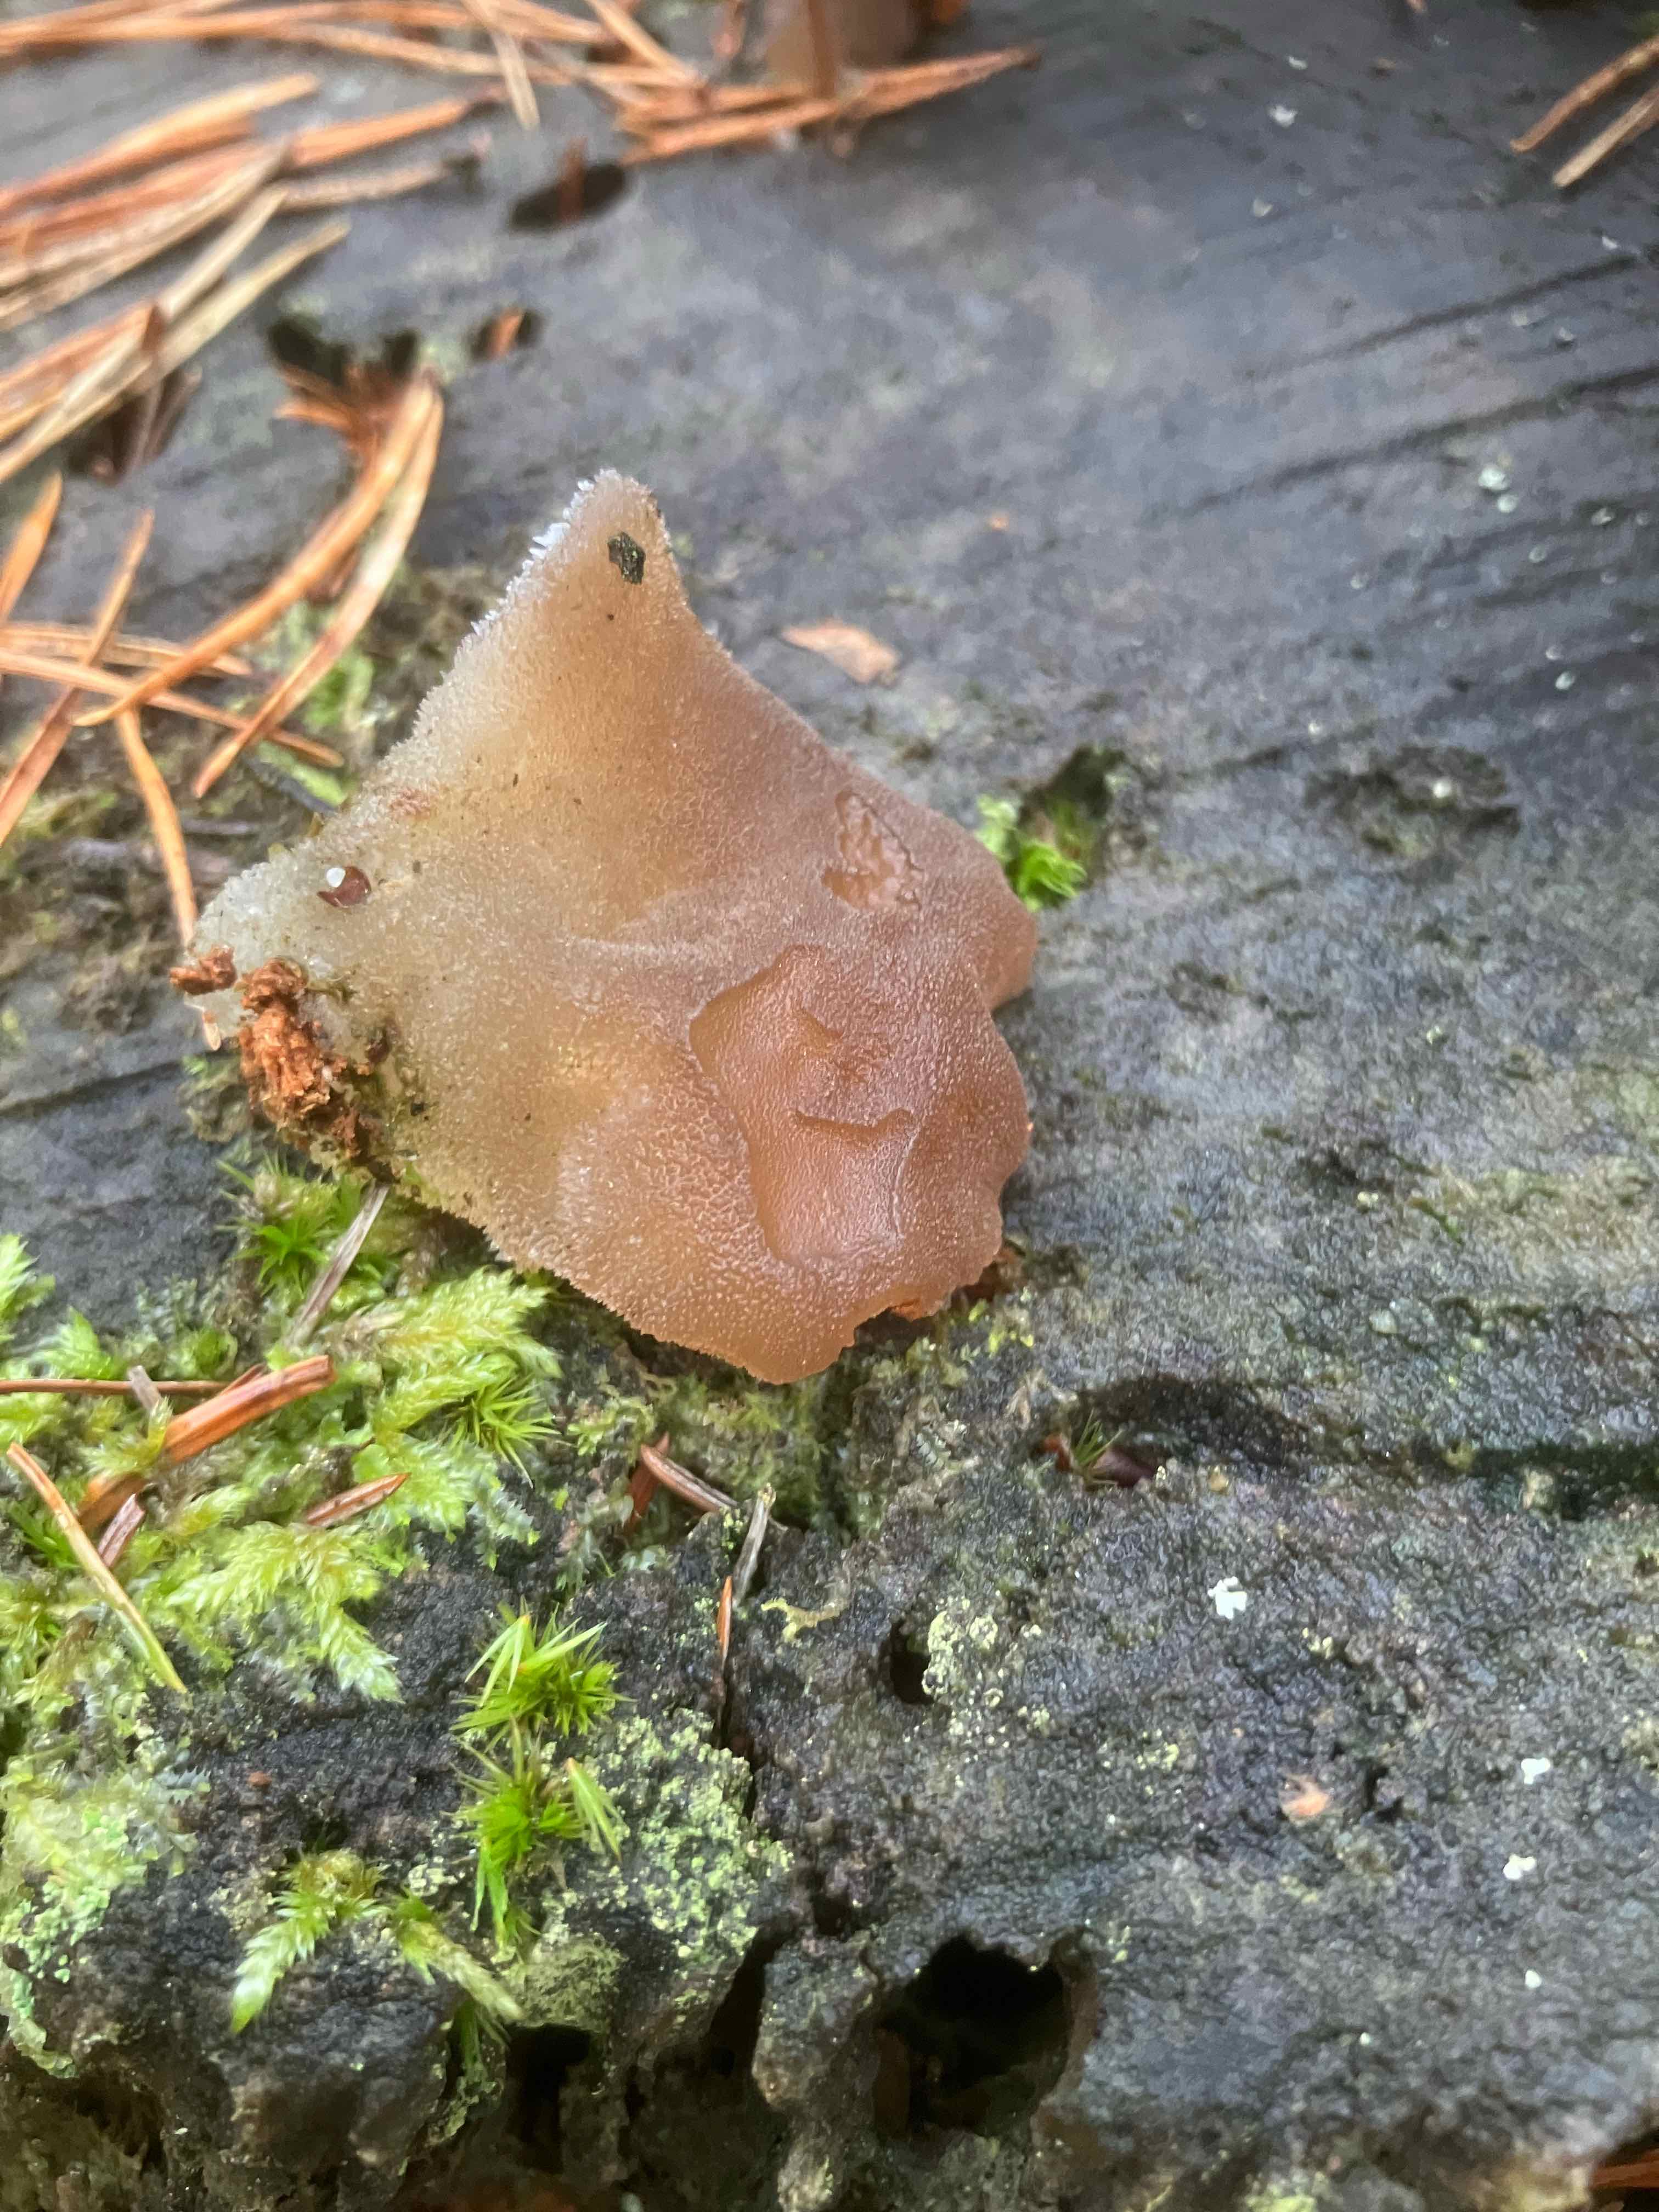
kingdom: Fungi
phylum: Basidiomycota
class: Agaricomycetes
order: Auriculariales
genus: Pseudohydnum
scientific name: Pseudohydnum gelatinosum
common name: bævretand
